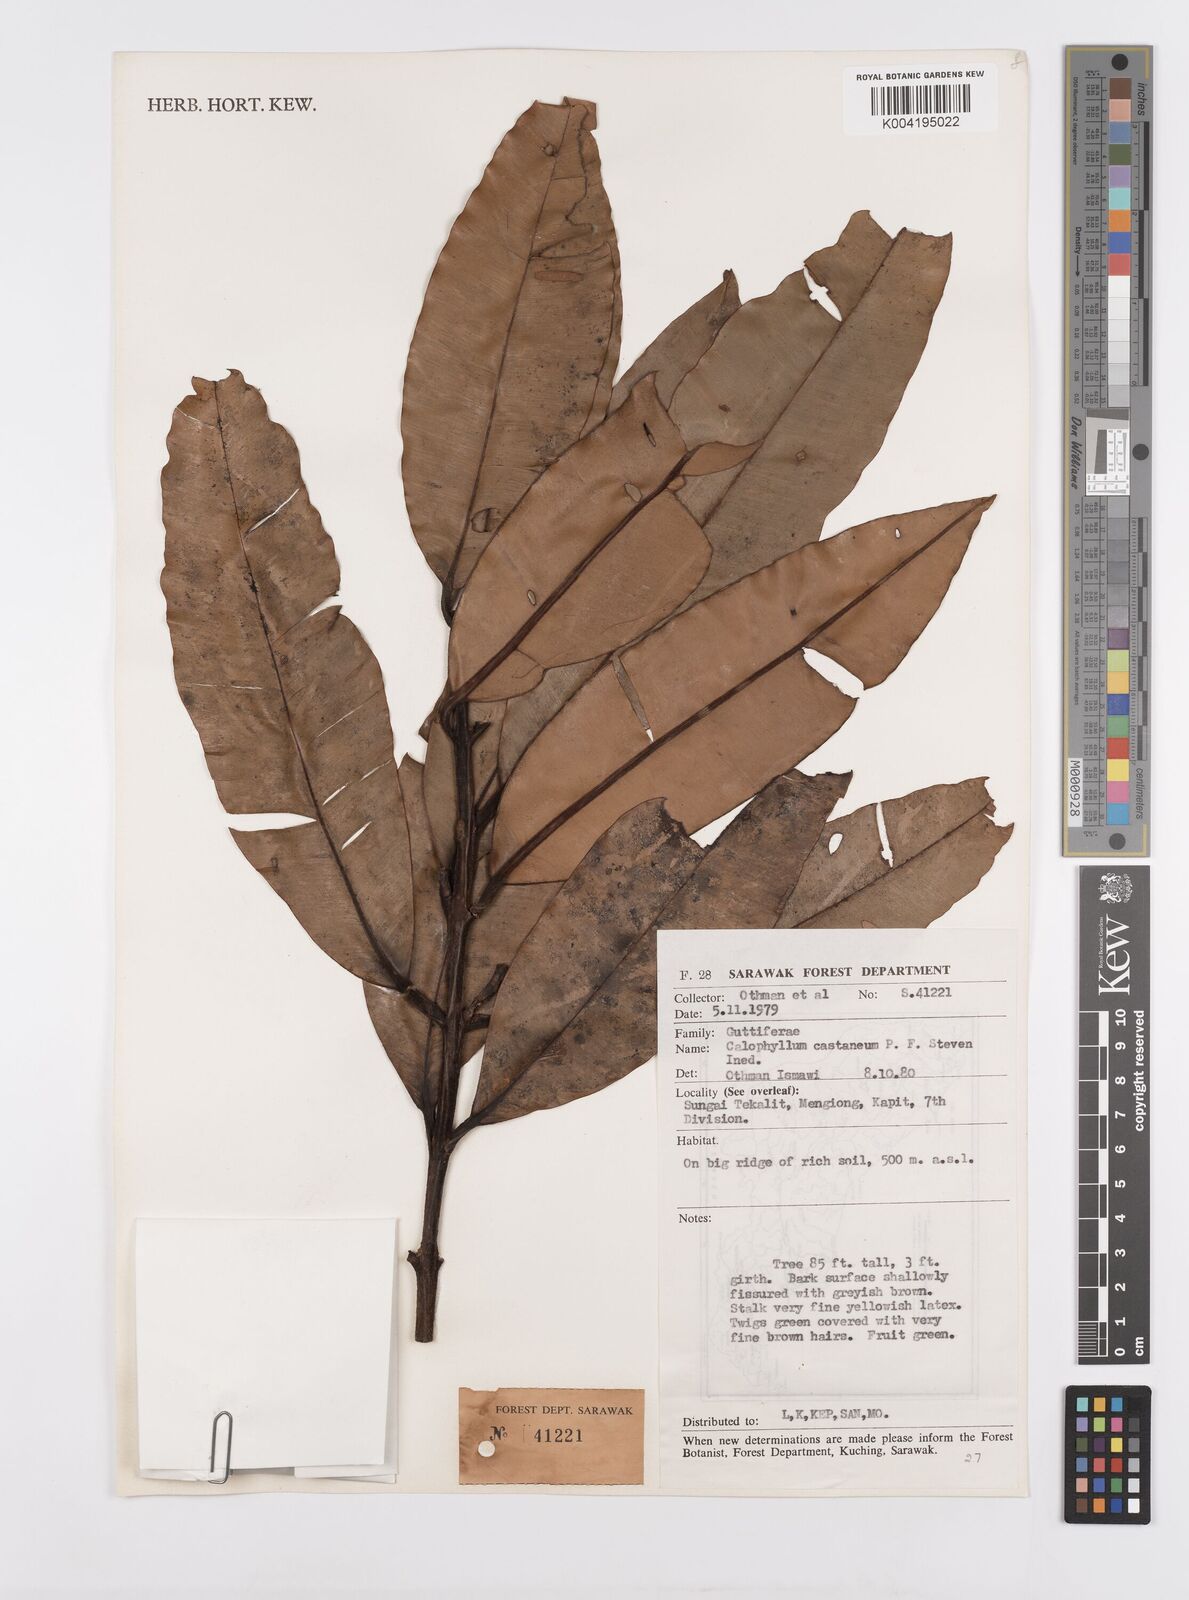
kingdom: Plantae
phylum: Tracheophyta
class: Magnoliopsida
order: Malpighiales
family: Calophyllaceae
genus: Calophyllum
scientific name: Calophyllum castaneum
